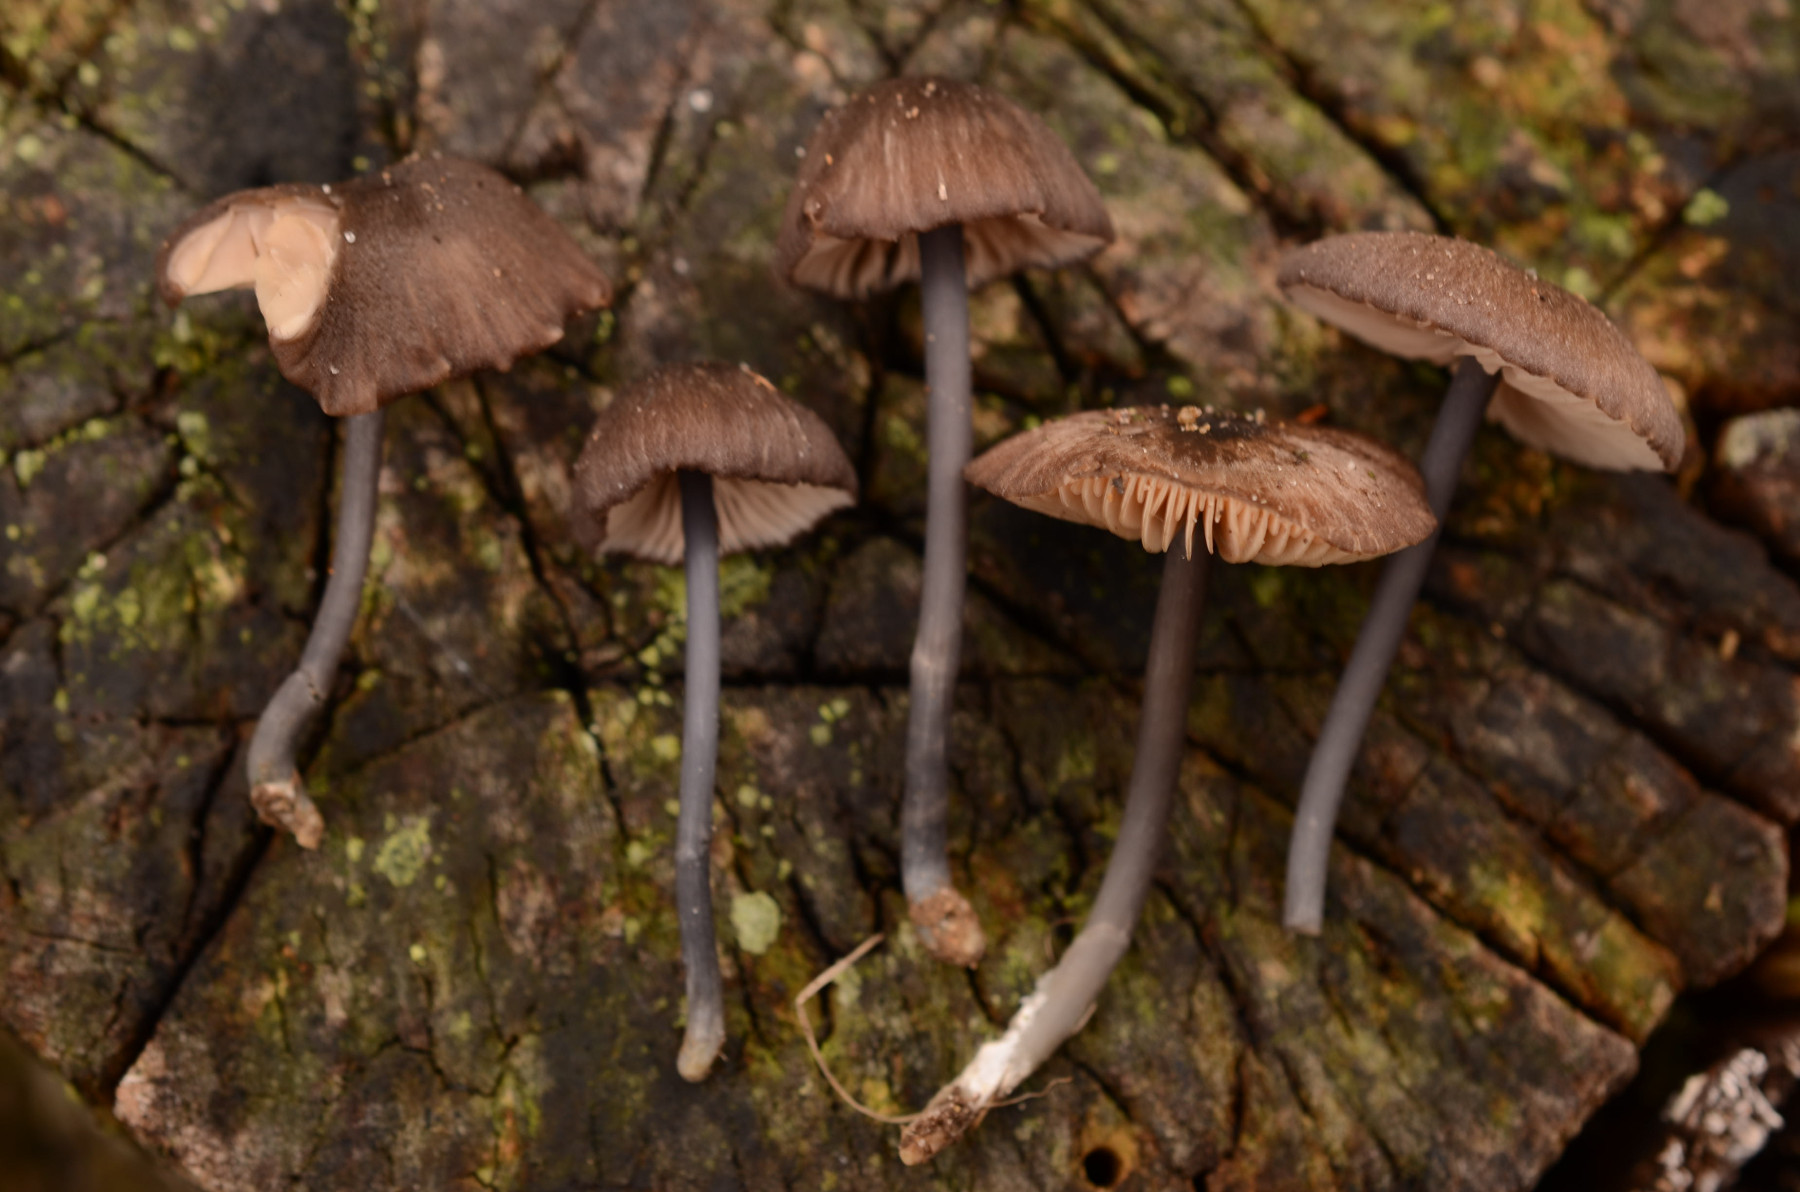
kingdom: Fungi
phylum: Basidiomycota
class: Agaricomycetes
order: Agaricales
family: Entolomataceae
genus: Entoloma
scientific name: Entoloma atrocoeruleum
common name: sortblå rødblad
